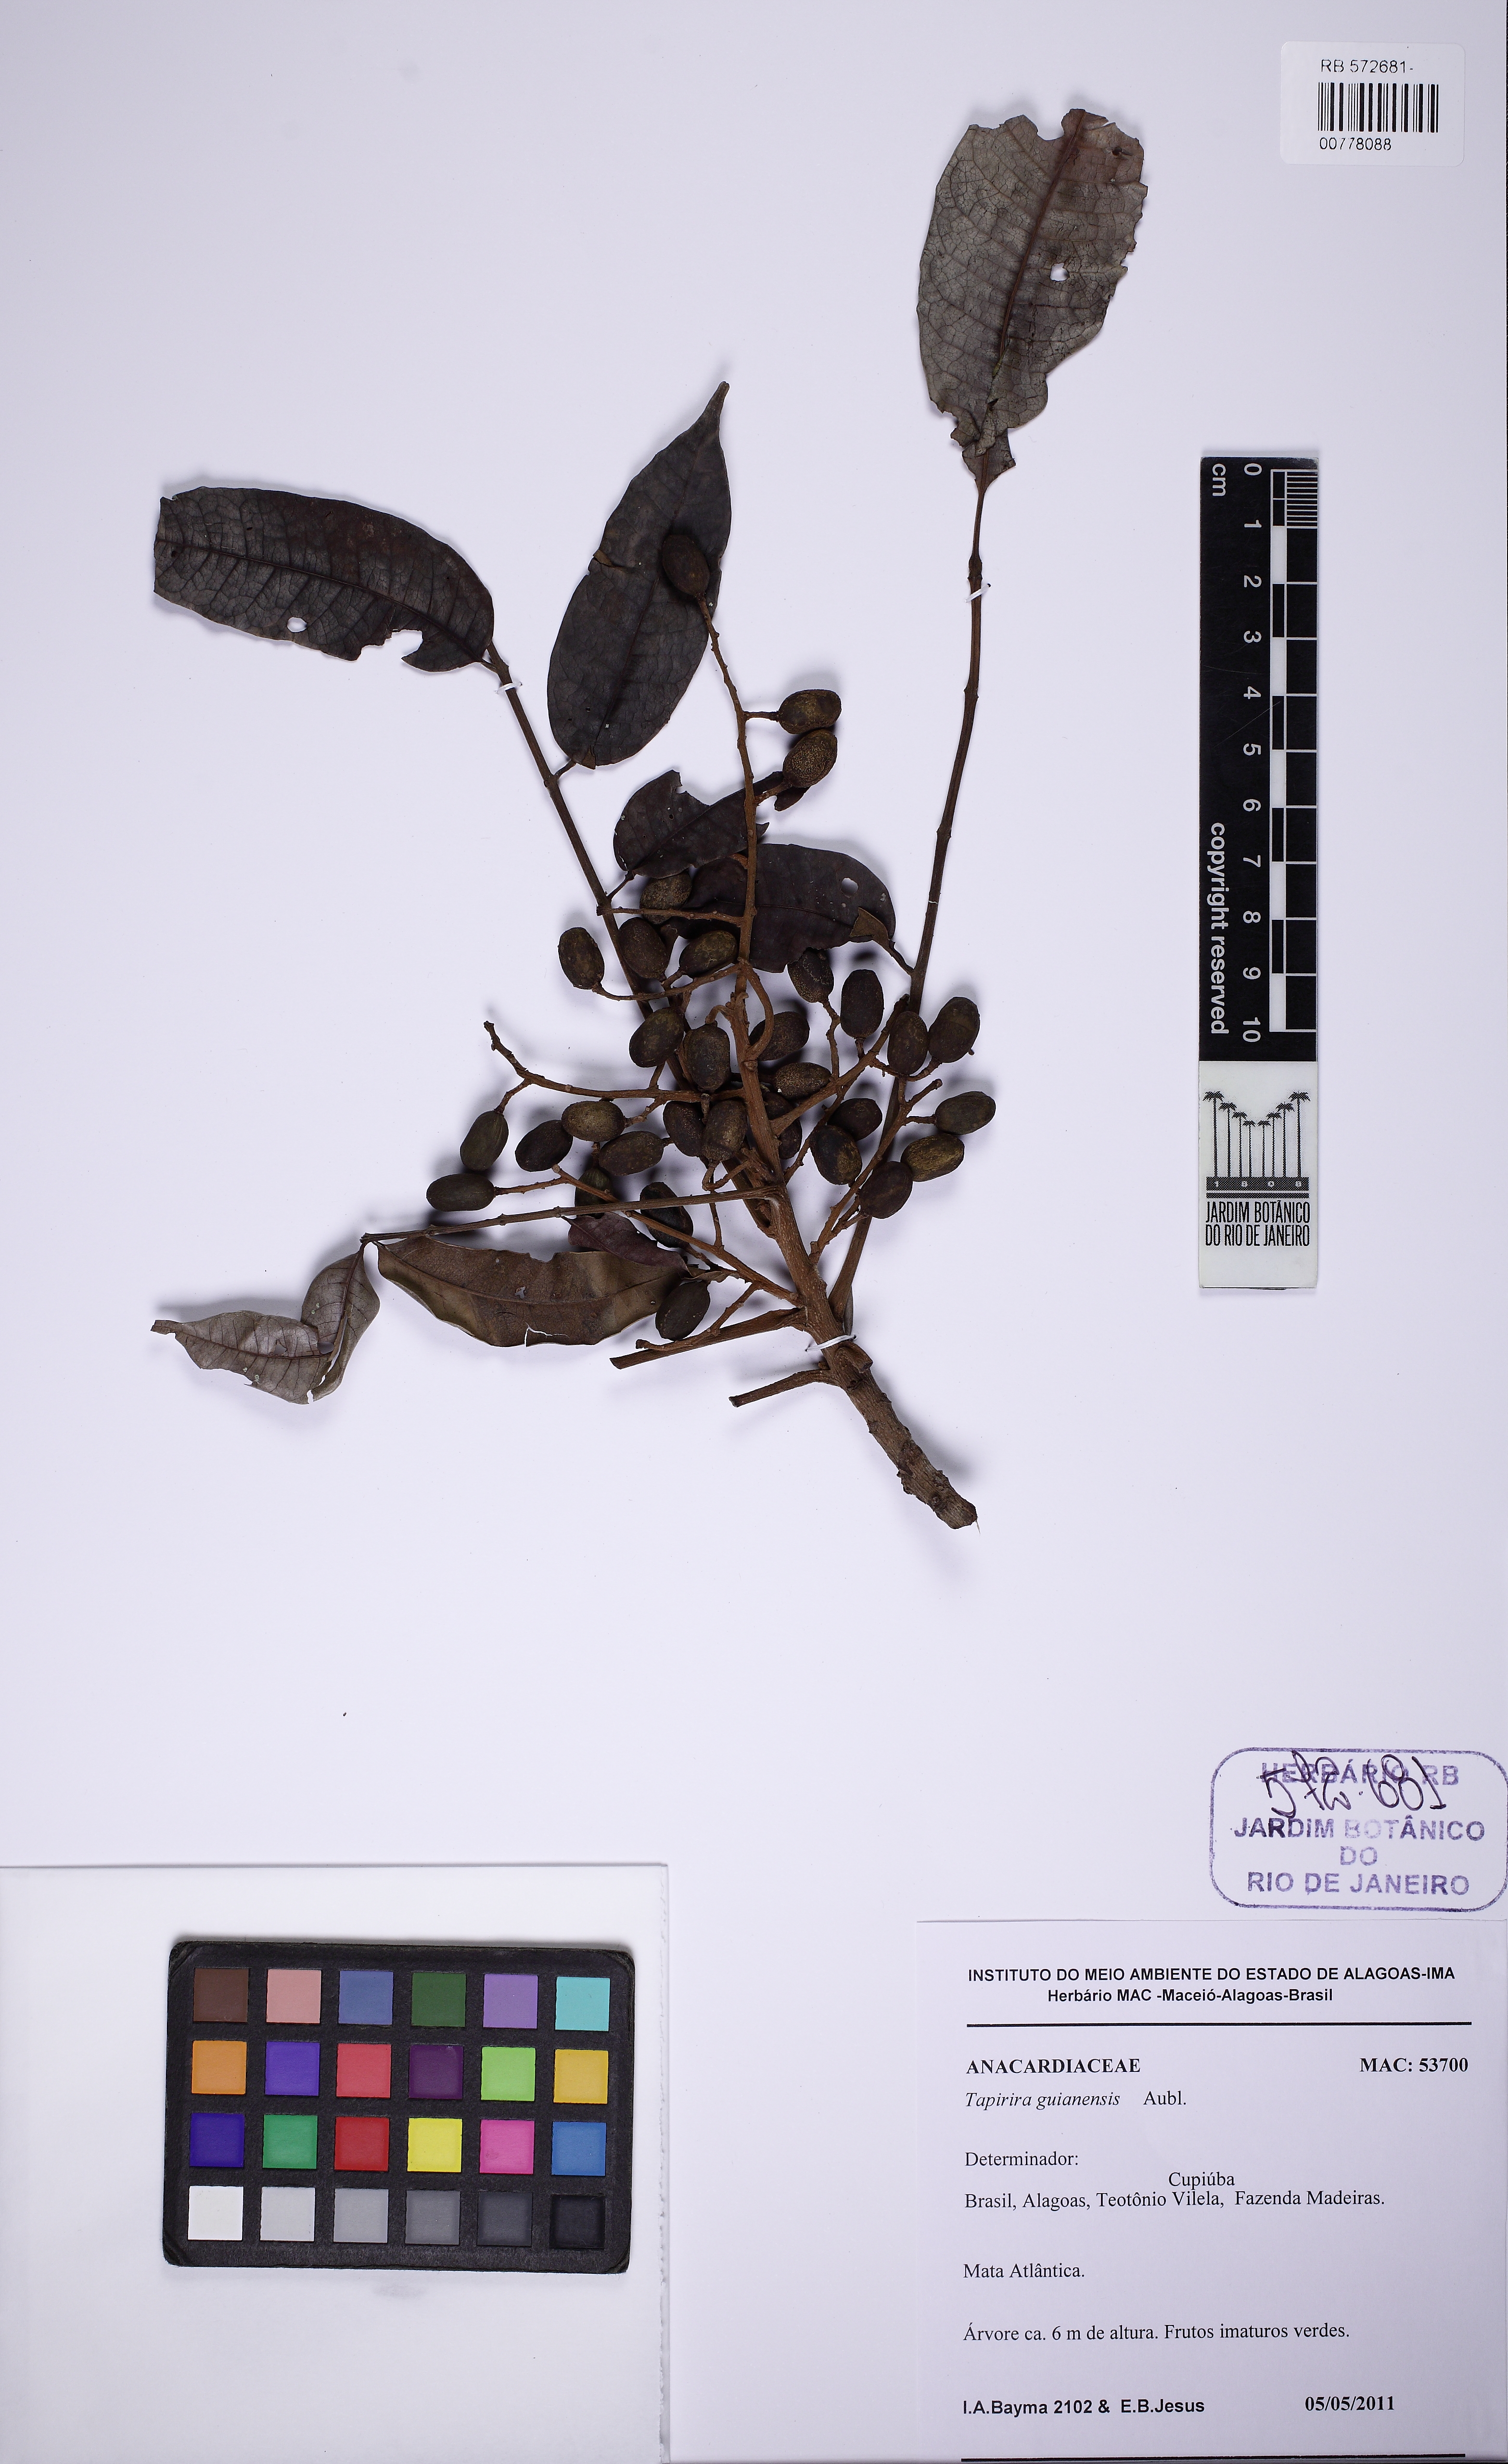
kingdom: Plantae
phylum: Tracheophyta
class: Magnoliopsida
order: Sapindales
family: Anacardiaceae
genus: Tapirira
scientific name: Tapirira guianensis
